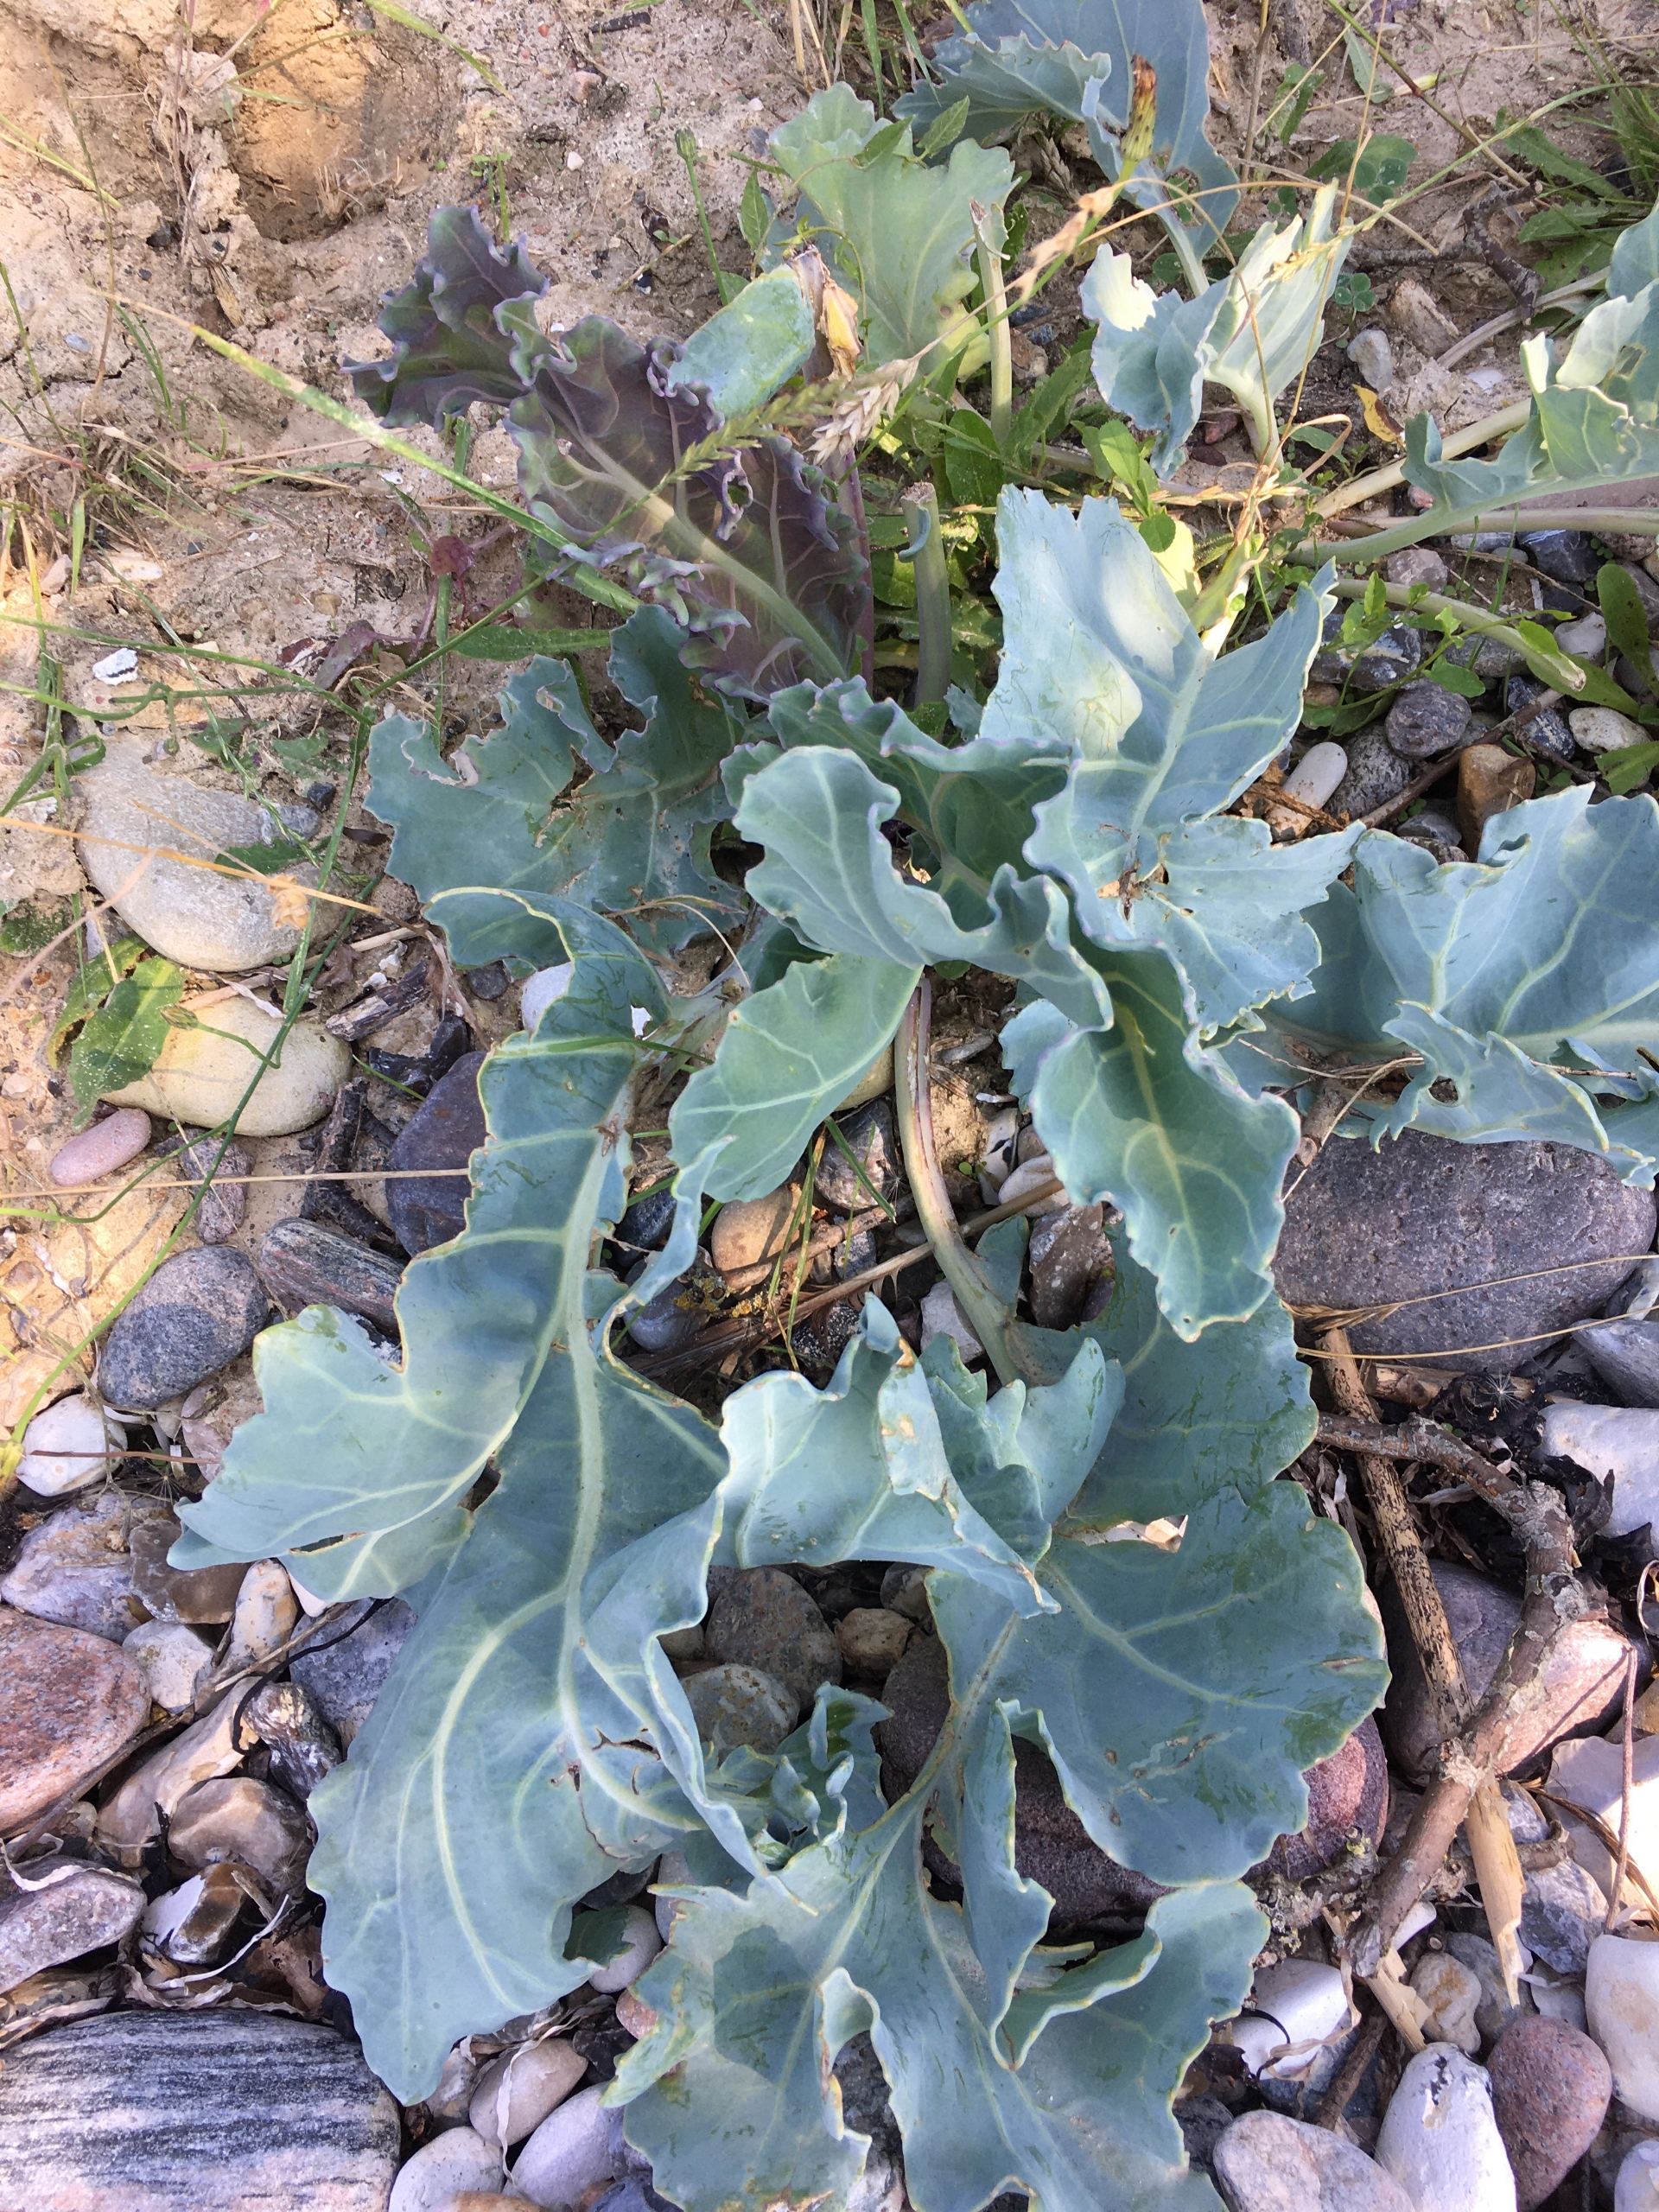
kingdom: Plantae
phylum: Tracheophyta
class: Magnoliopsida
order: Brassicales
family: Brassicaceae
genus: Crambe
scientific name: Crambe maritima
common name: Strandkål
